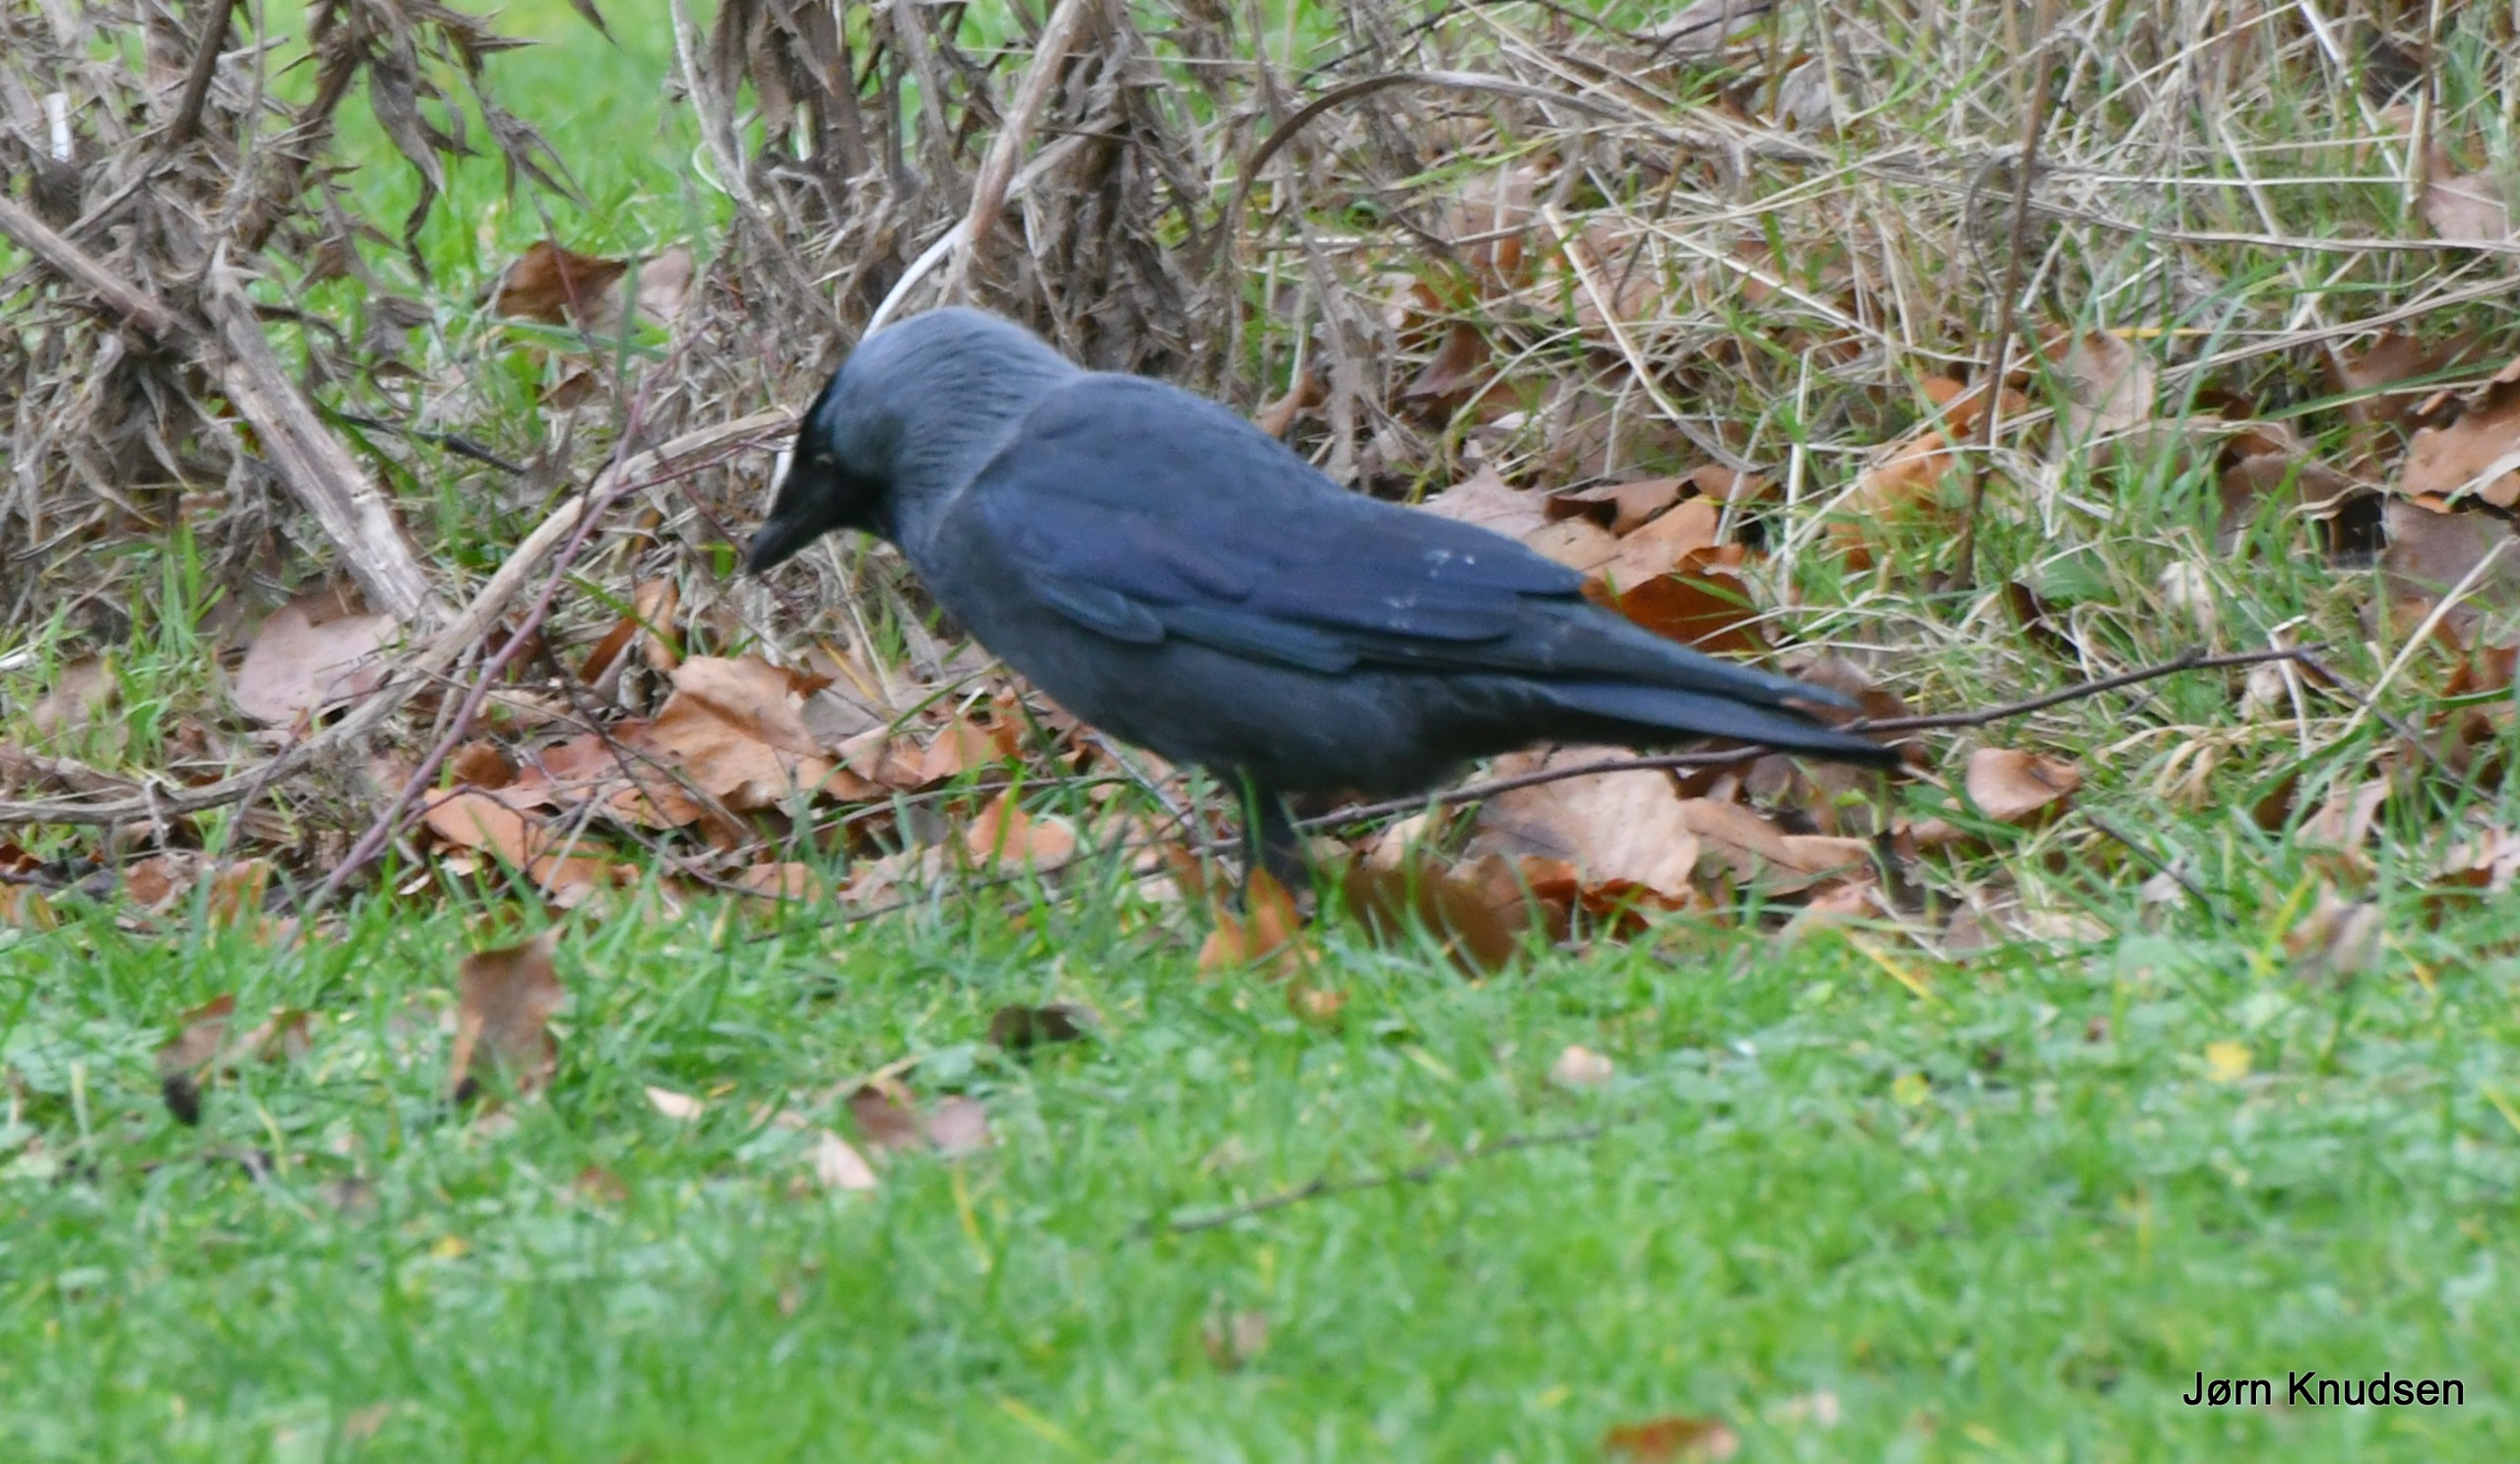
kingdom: Animalia
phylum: Chordata
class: Aves
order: Passeriformes
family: Corvidae
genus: Coloeus
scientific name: Coloeus monedula
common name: Allike
